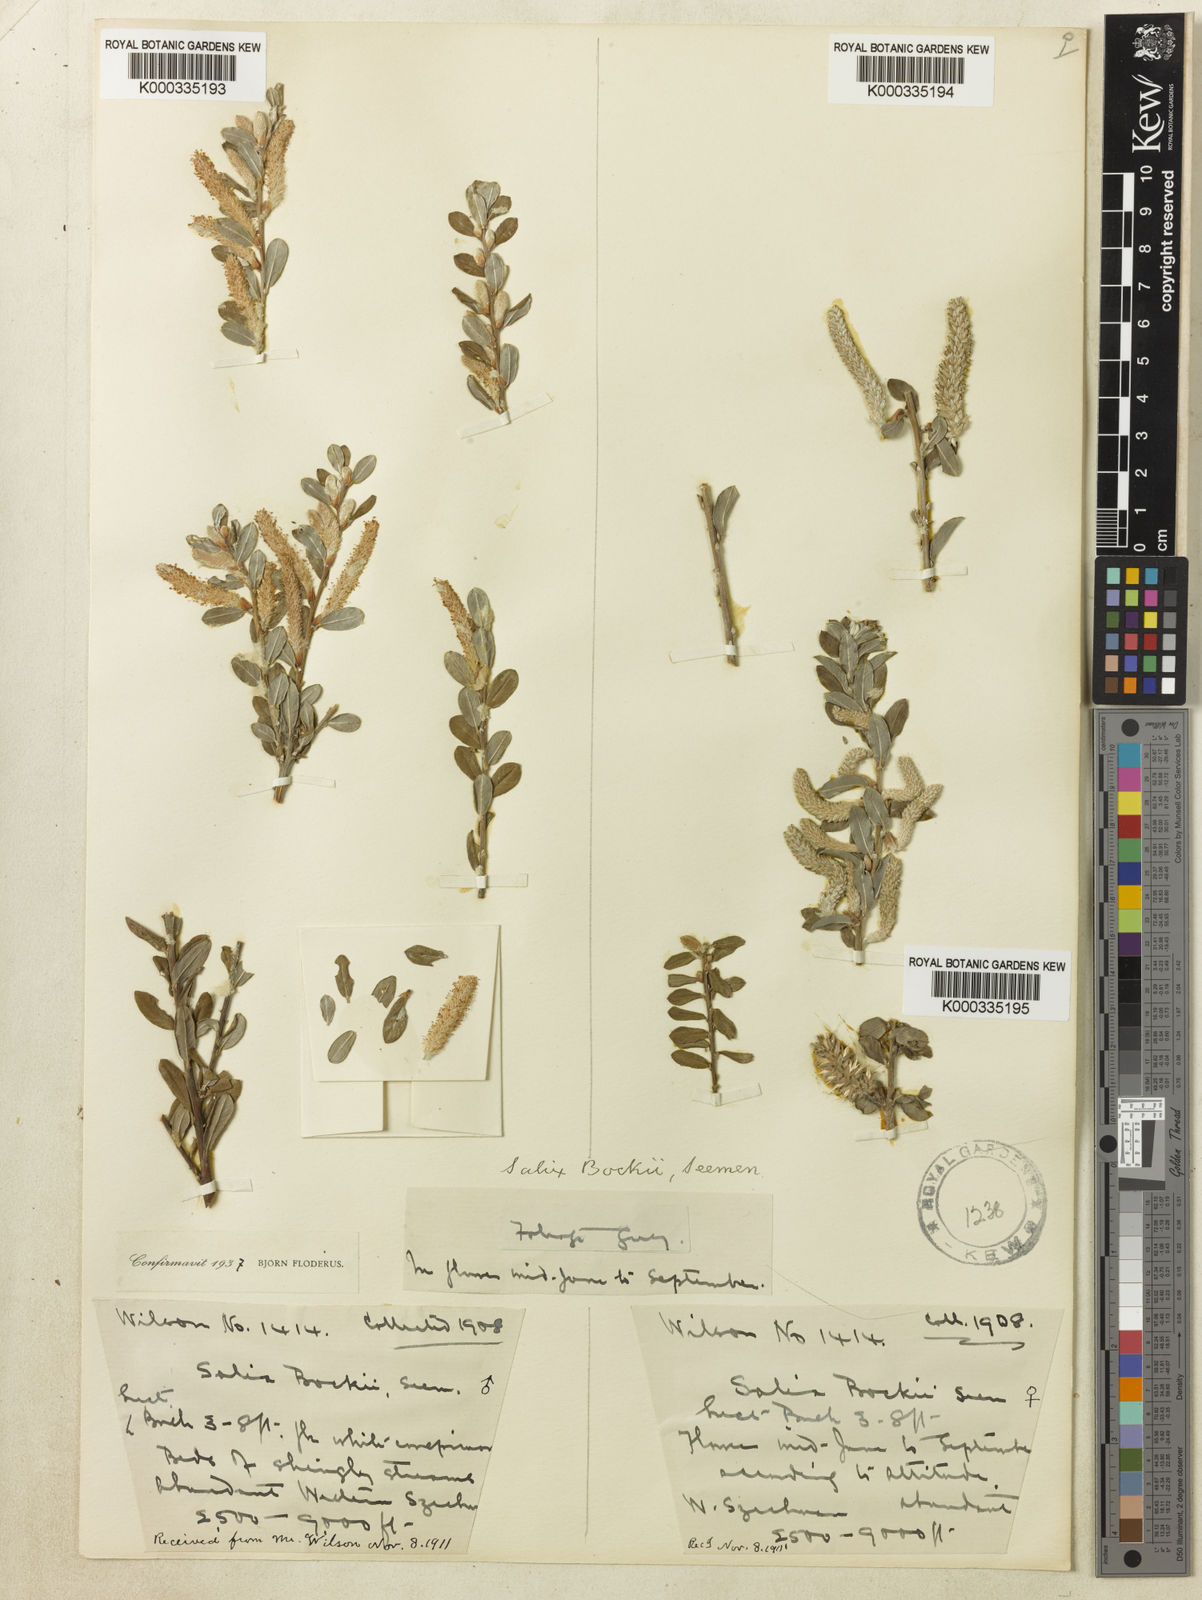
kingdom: Plantae
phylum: Tracheophyta
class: Magnoliopsida
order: Malpighiales
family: Salicaceae
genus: Salix
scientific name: Salix
